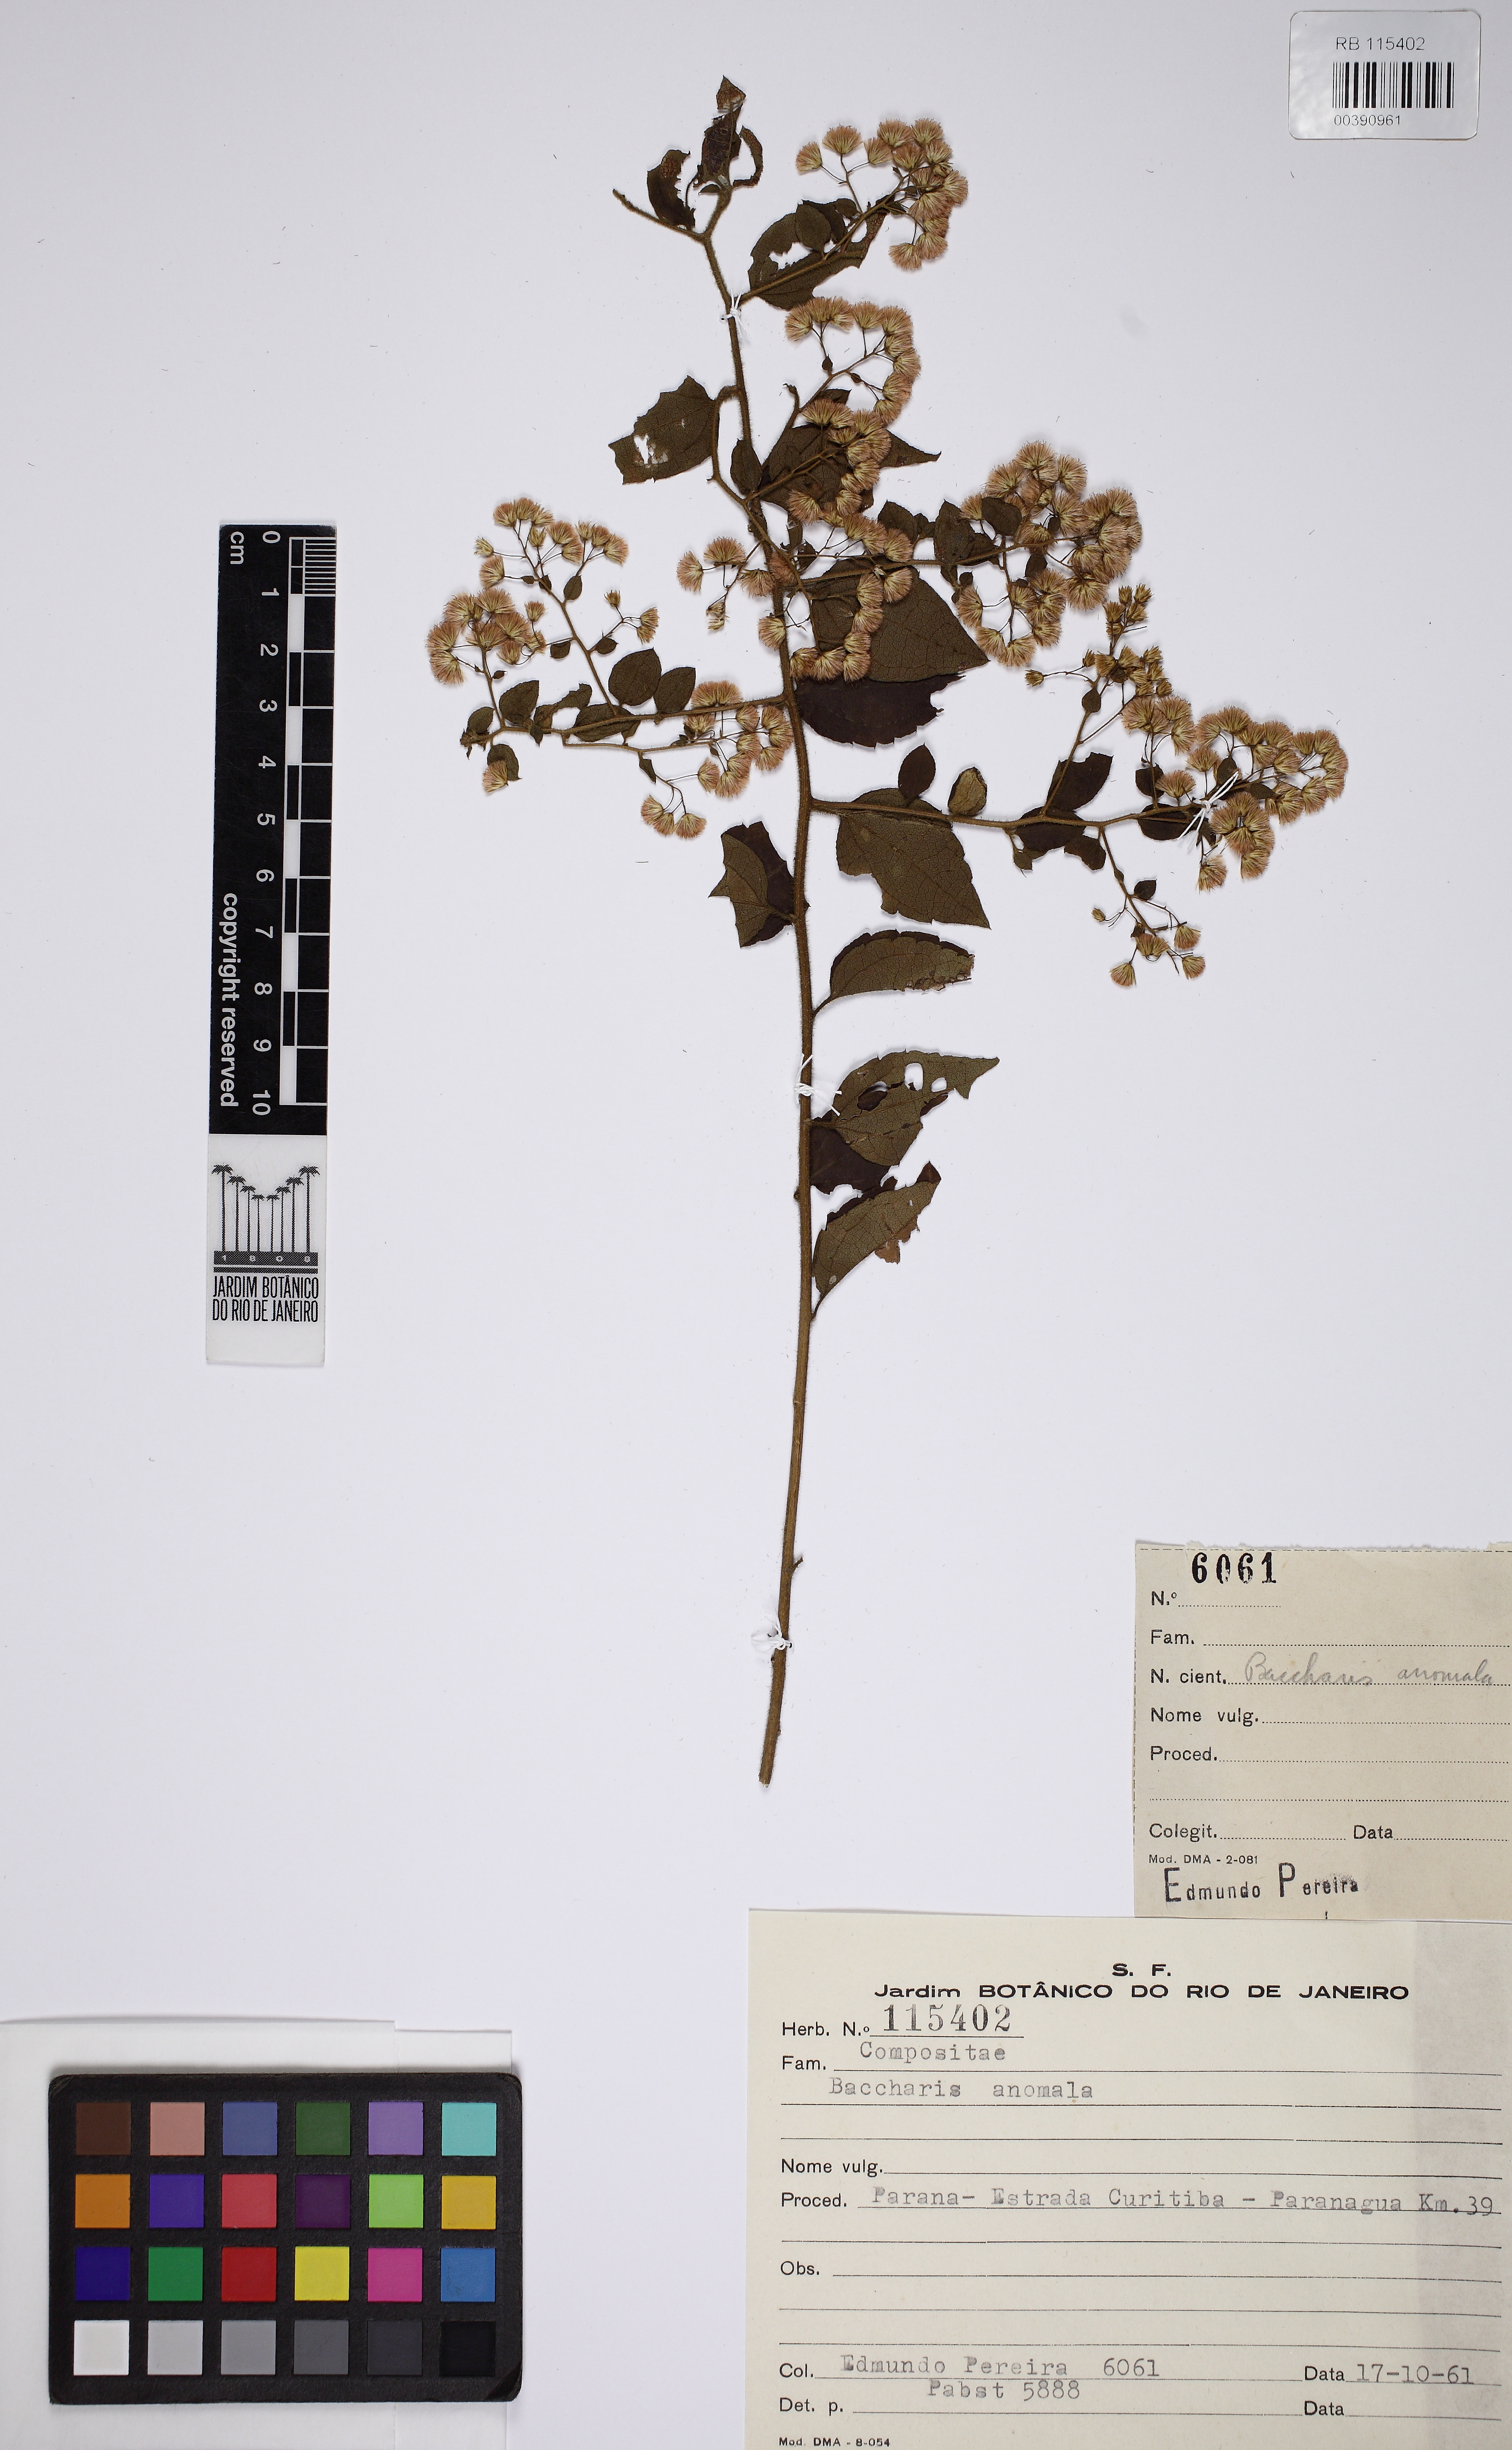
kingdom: Plantae
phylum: Tracheophyta
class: Magnoliopsida
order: Asterales
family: Asteraceae
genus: Baccharis
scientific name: Baccharis anomala
